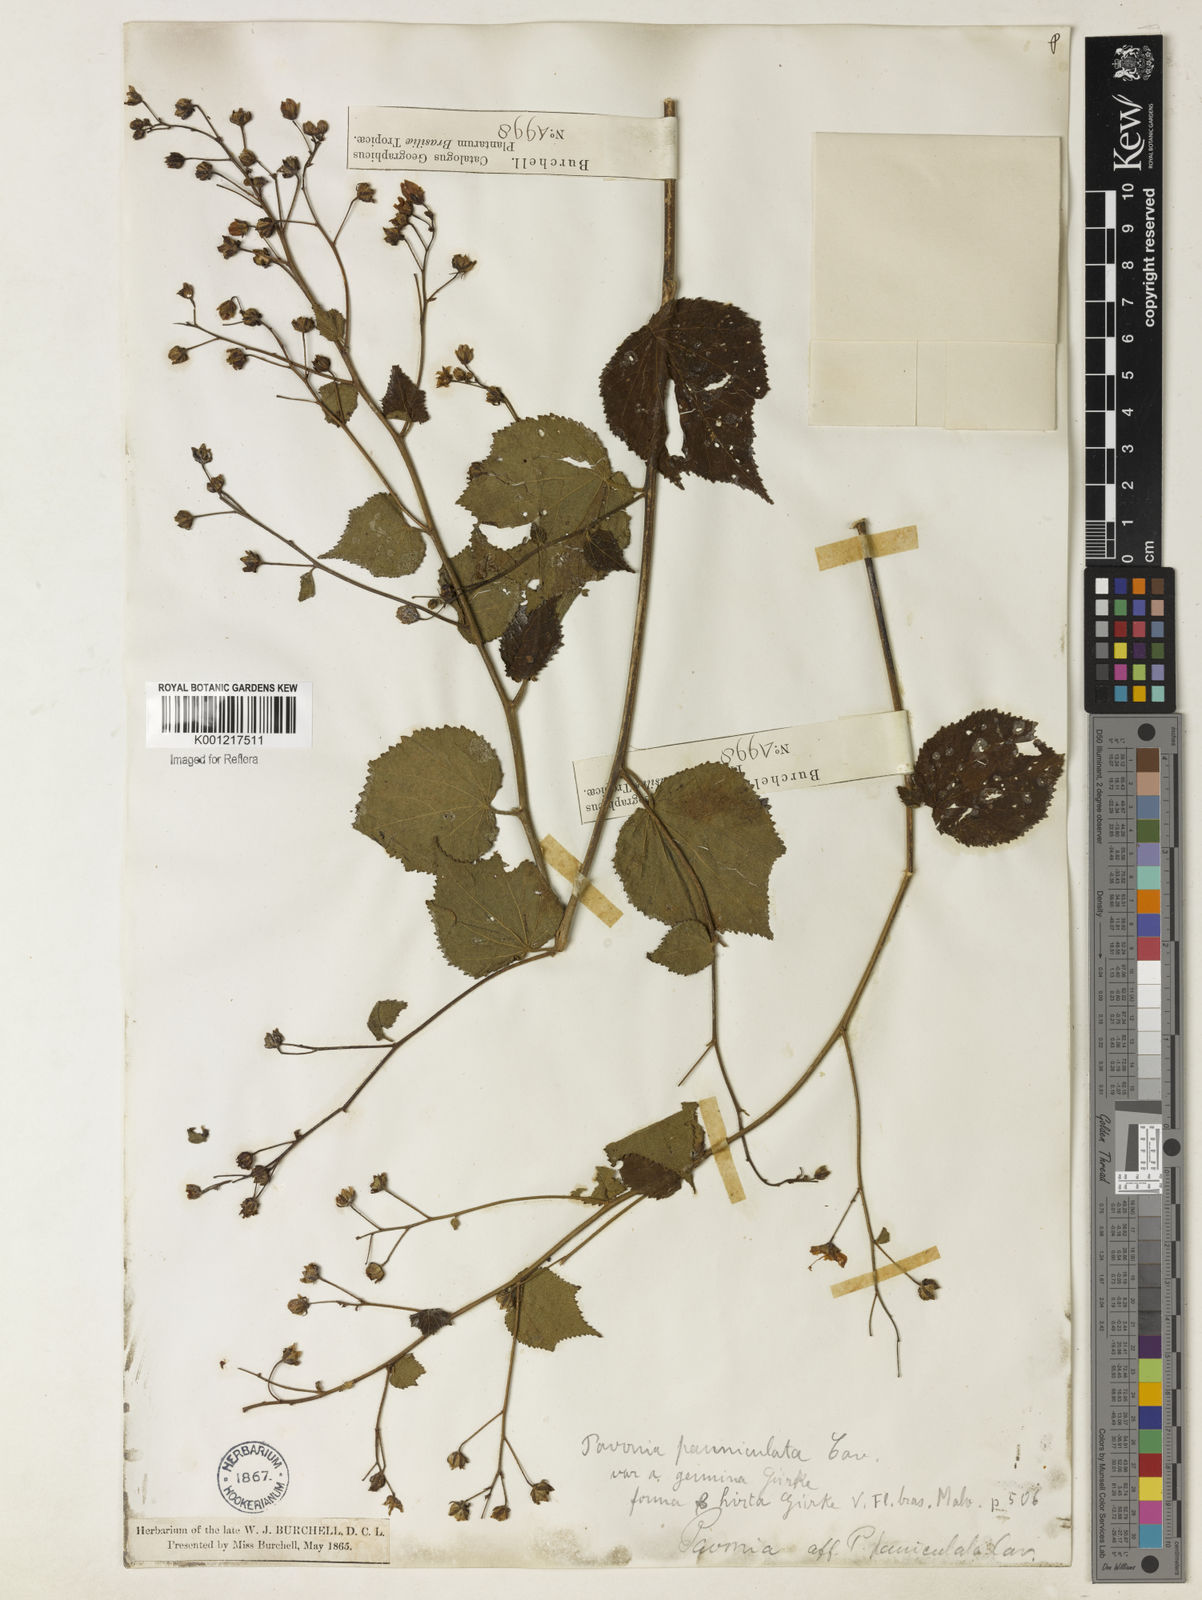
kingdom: Plantae
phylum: Tracheophyta
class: Magnoliopsida
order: Malvales
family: Malvaceae
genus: Pavonia
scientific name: Pavonia paniculata
